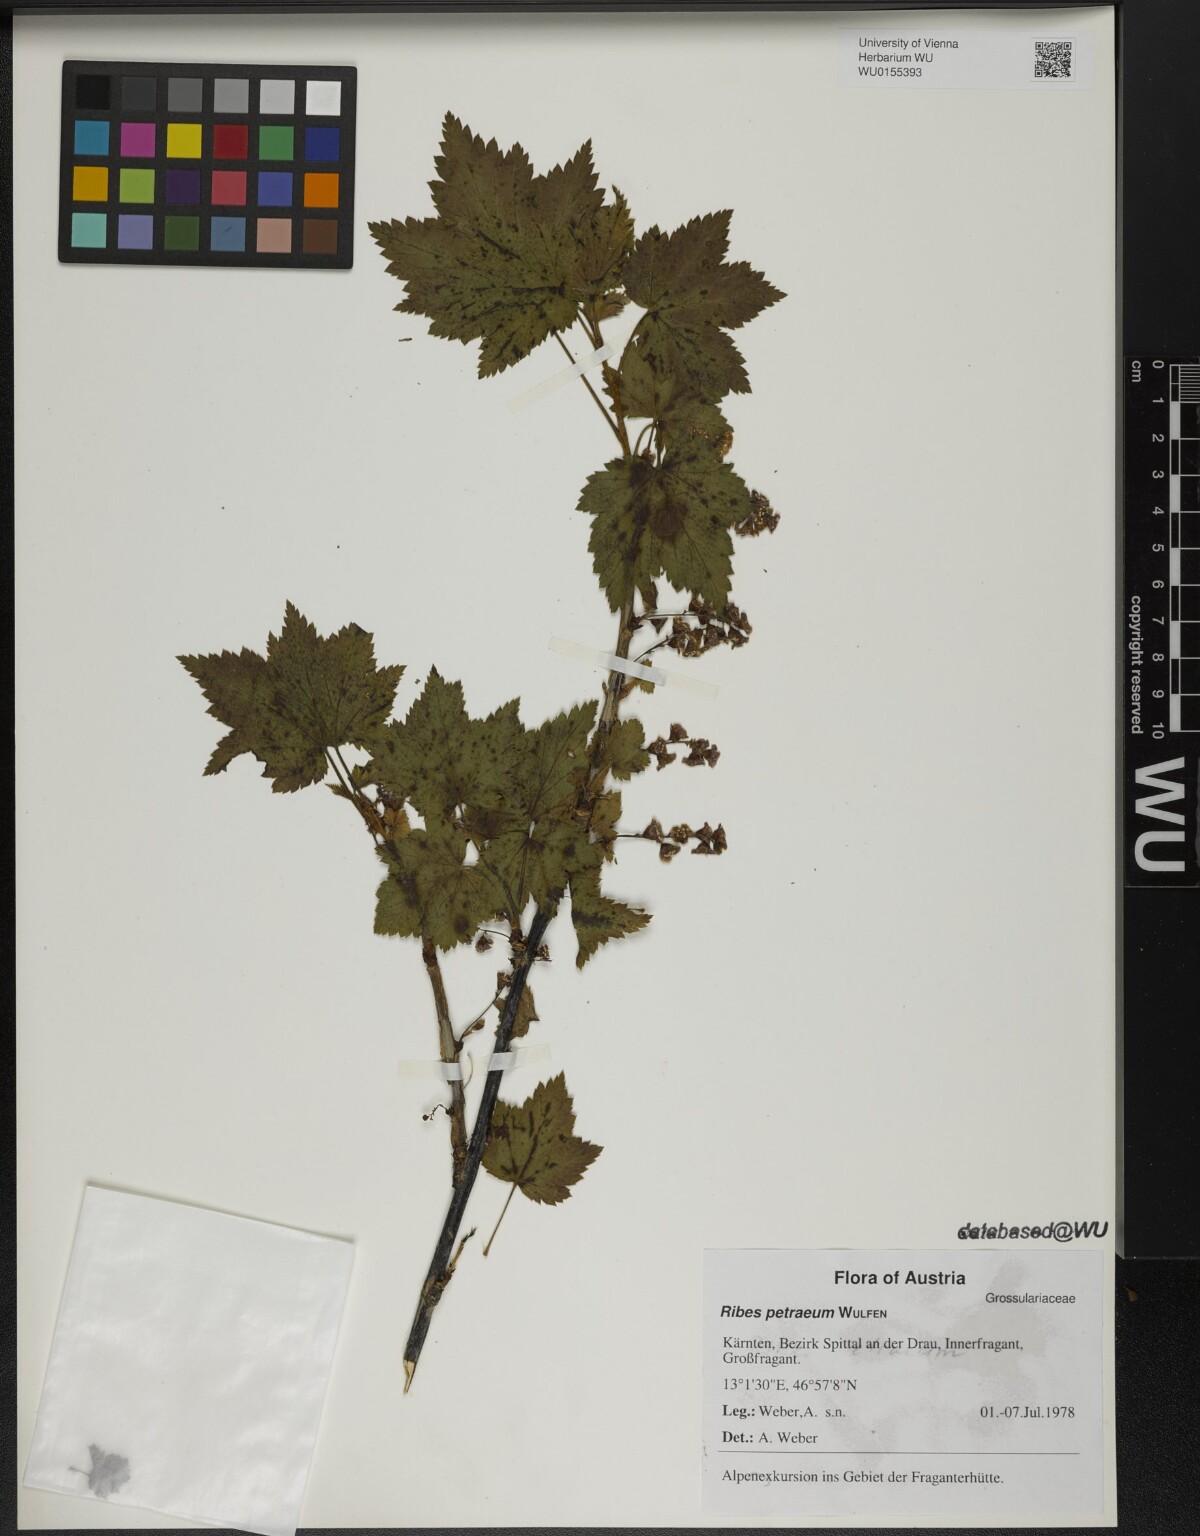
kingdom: Plantae
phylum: Tracheophyta
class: Magnoliopsida
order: Saxifragales
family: Grossulariaceae
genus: Ribes
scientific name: Ribes petraeum
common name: Rock currant
